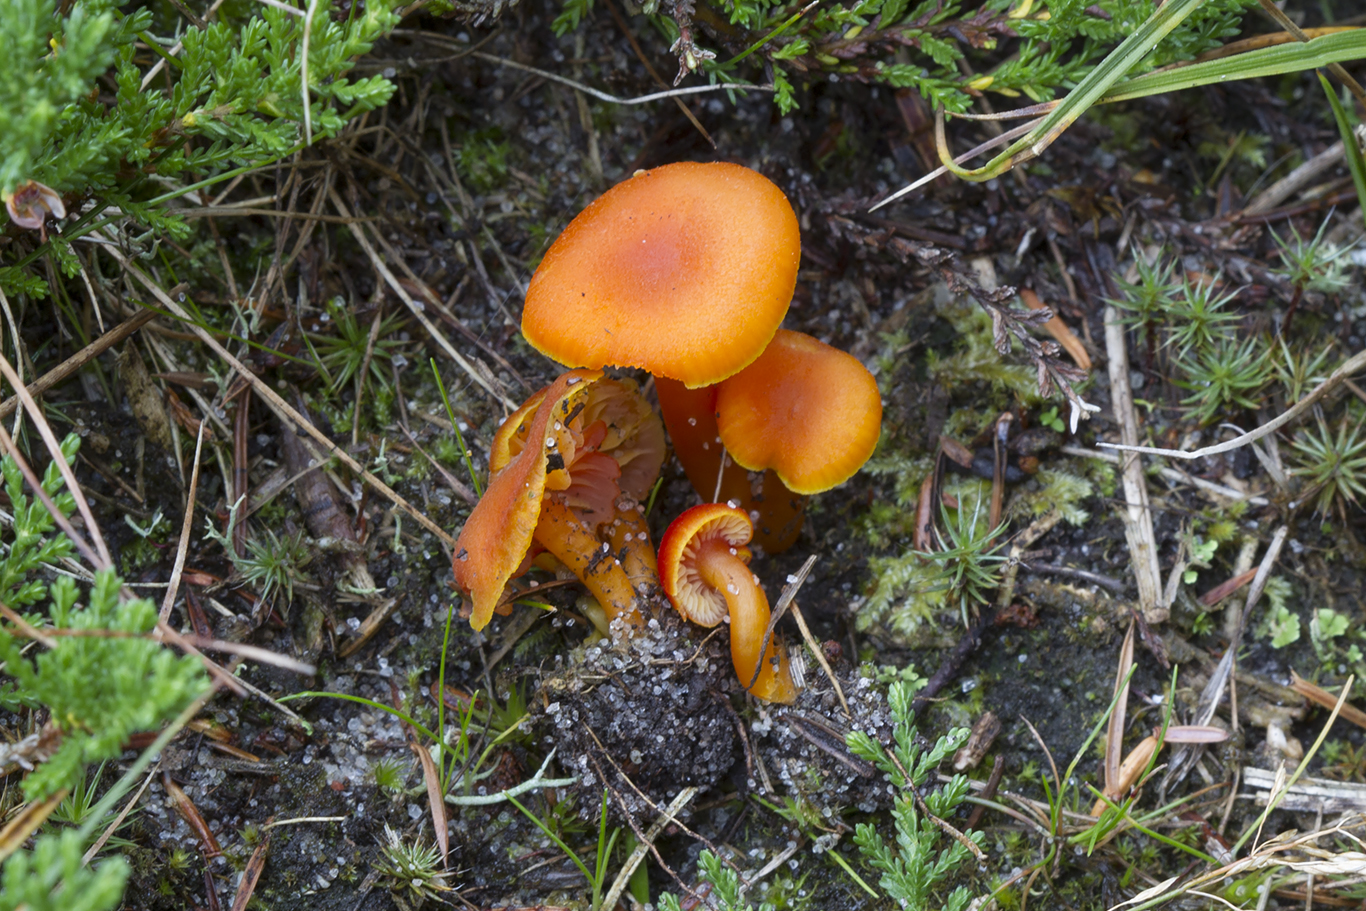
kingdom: Fungi
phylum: Basidiomycota
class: Agaricomycetes
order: Agaricales
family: Hygrophoraceae
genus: Hygrocybe
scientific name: Hygrocybe miniata
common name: mønje-vokshat
